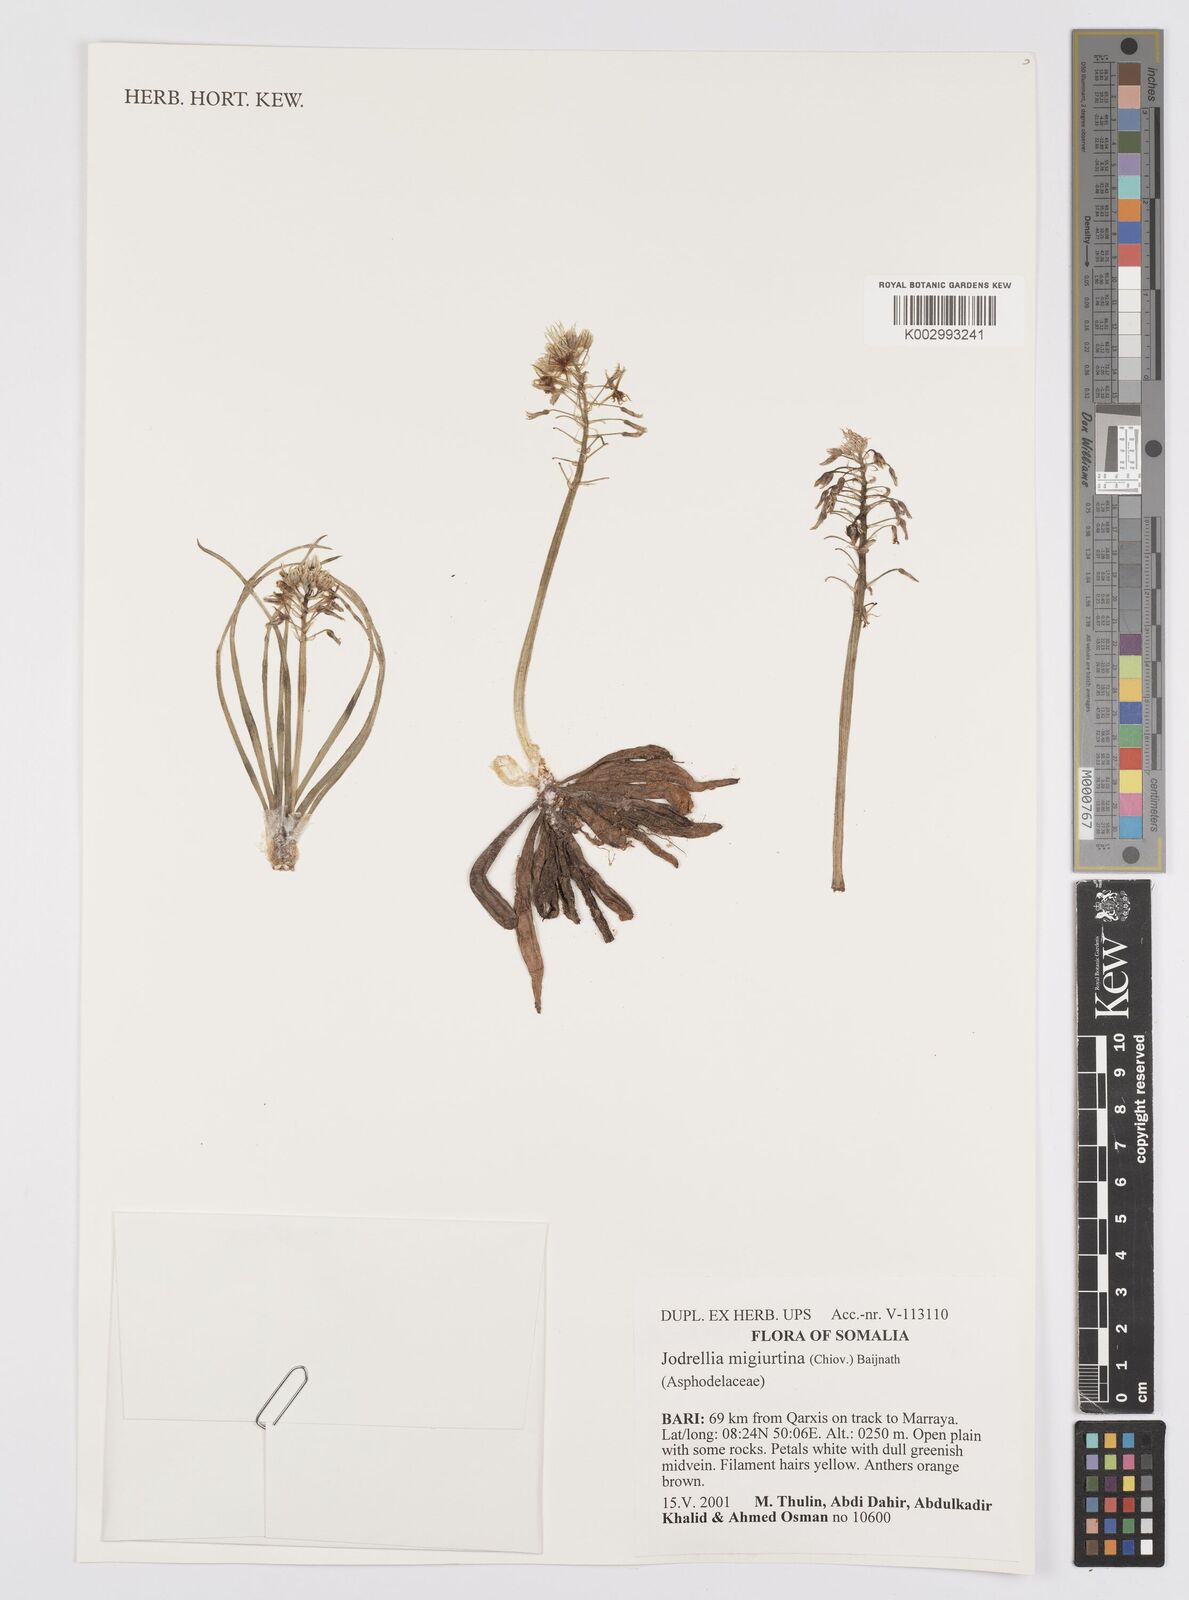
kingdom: Plantae
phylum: Tracheophyta
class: Liliopsida
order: Asparagales
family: Asphodelaceae
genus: Bulbine
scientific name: Bulbine migiurtina
